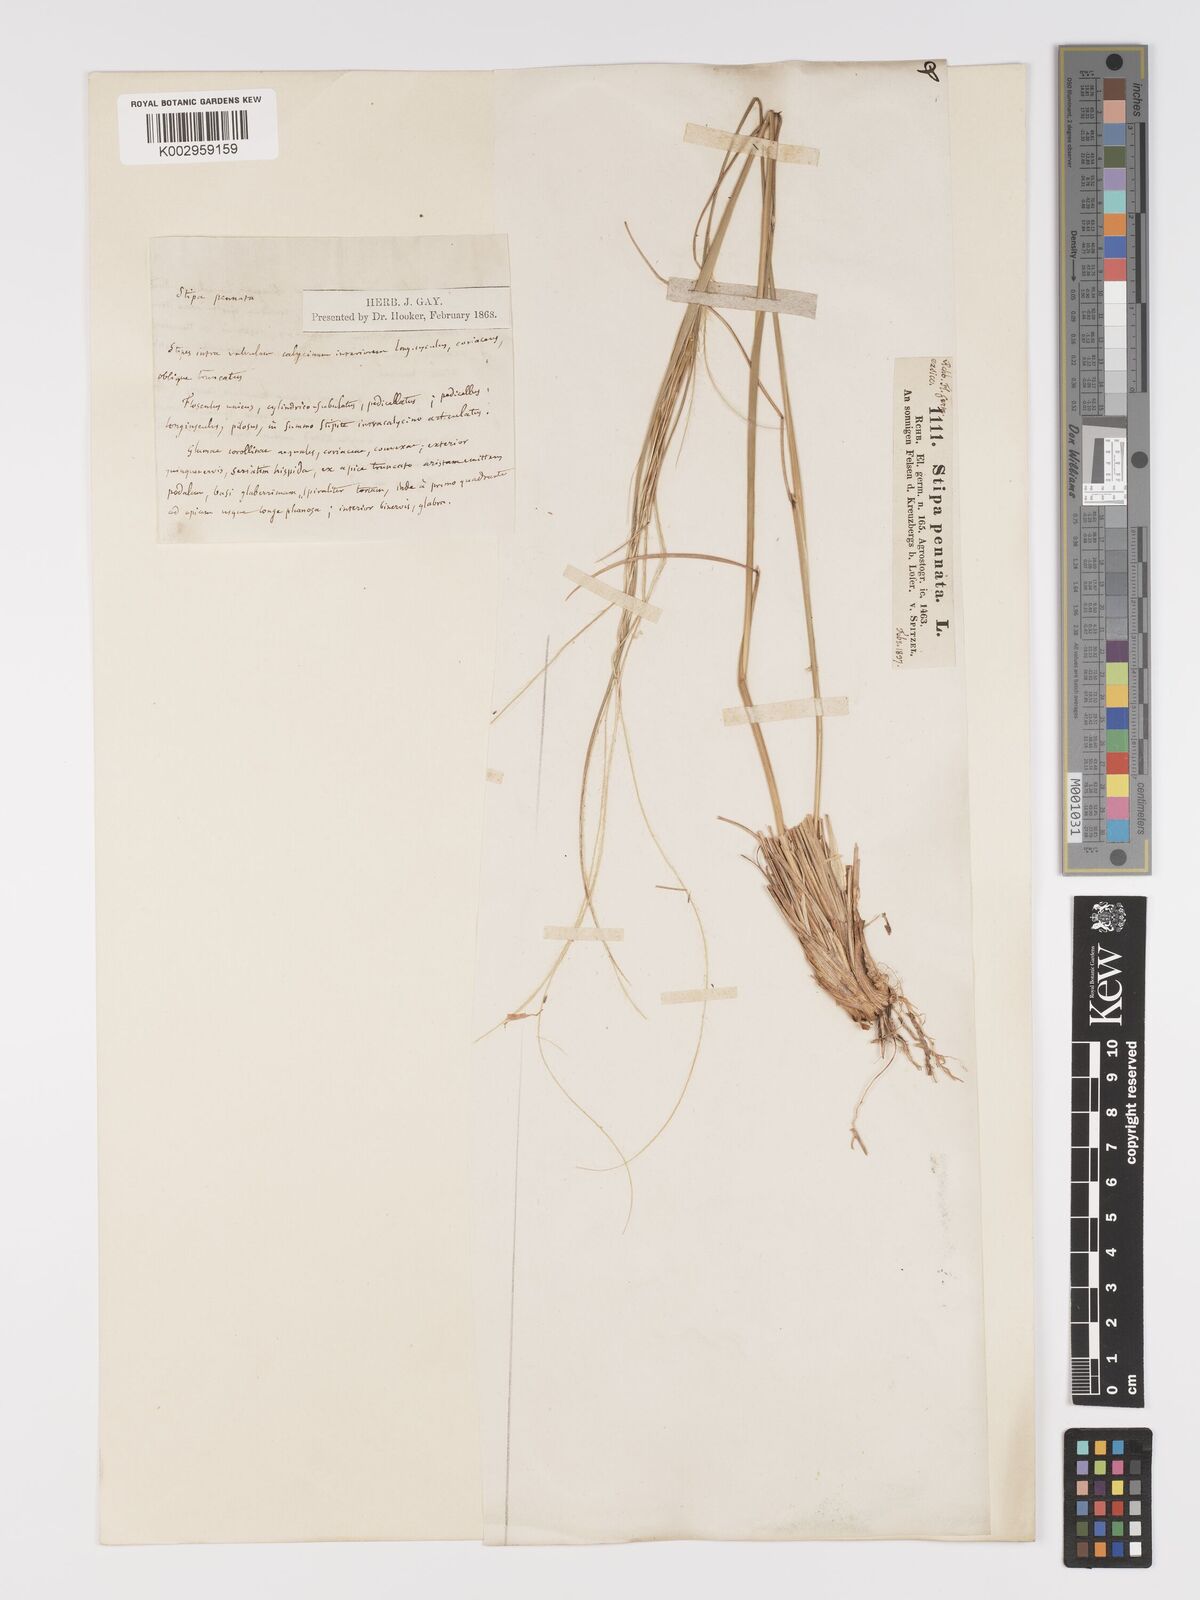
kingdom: Plantae
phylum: Tracheophyta
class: Liliopsida
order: Poales
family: Poaceae
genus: Stipa
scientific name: Stipa pennata
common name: European feather grass
